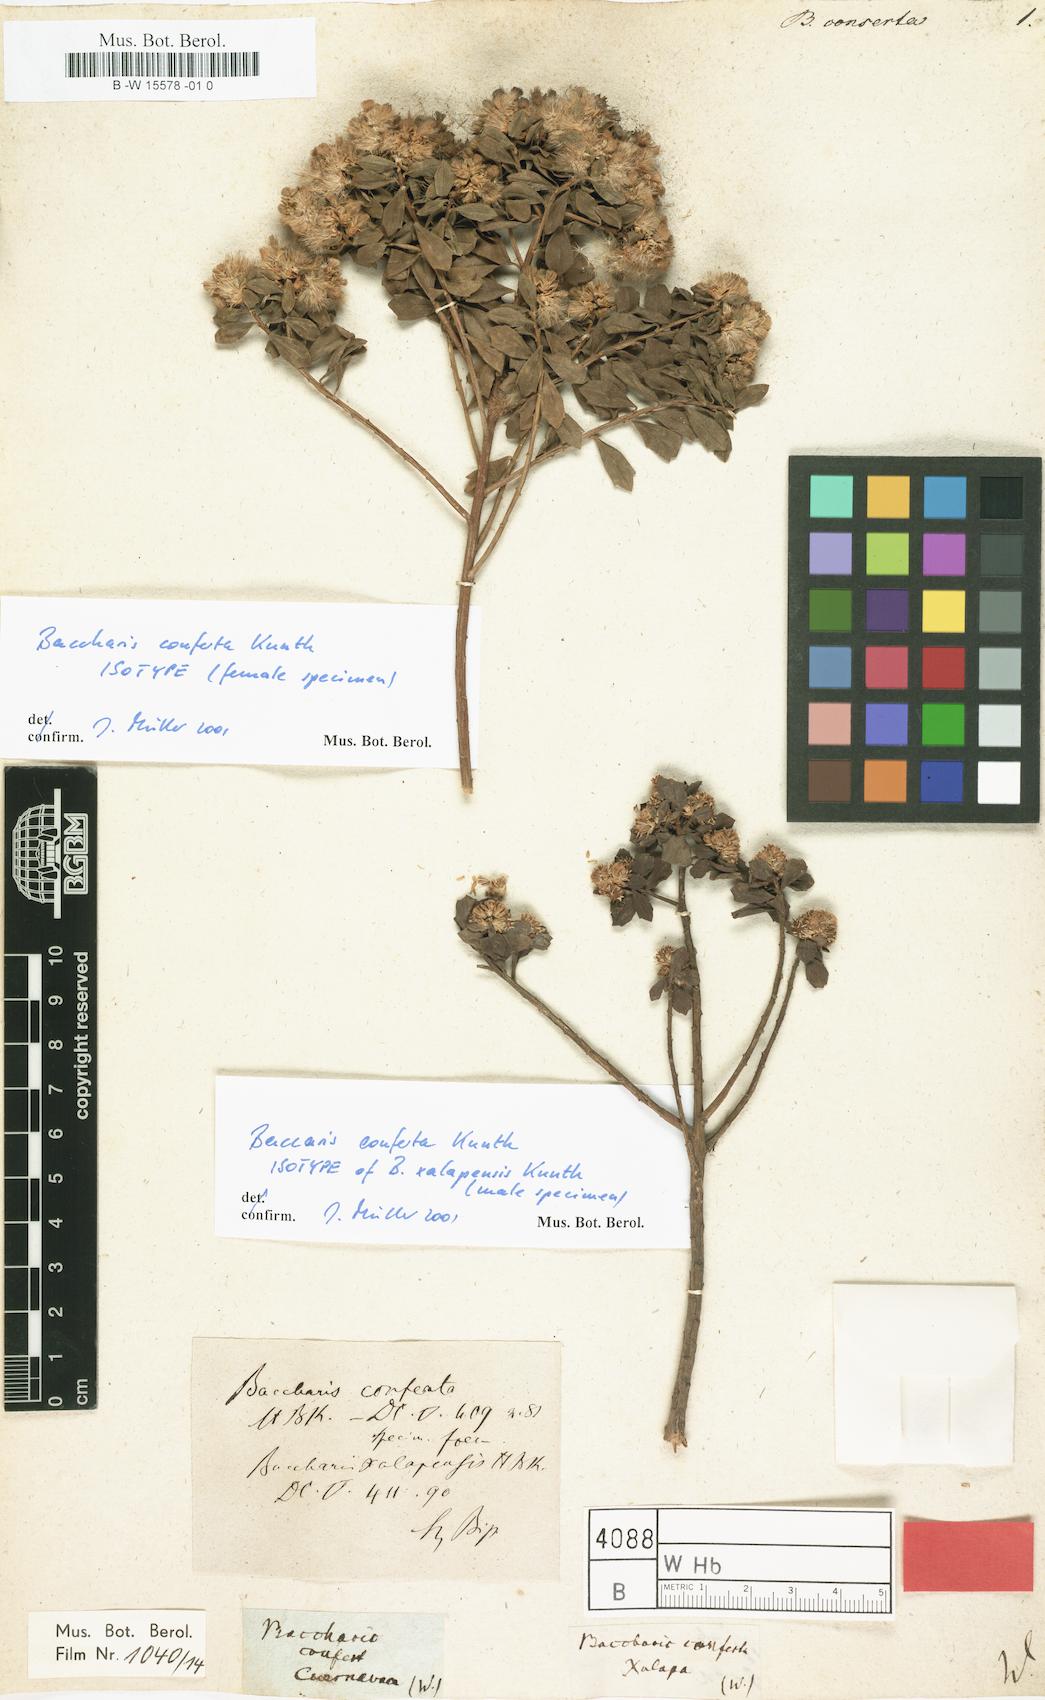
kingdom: Plantae
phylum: Tracheophyta
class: Magnoliopsida
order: Asterales
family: Asteraceae
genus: Baccharis
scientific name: Baccharis conferta
